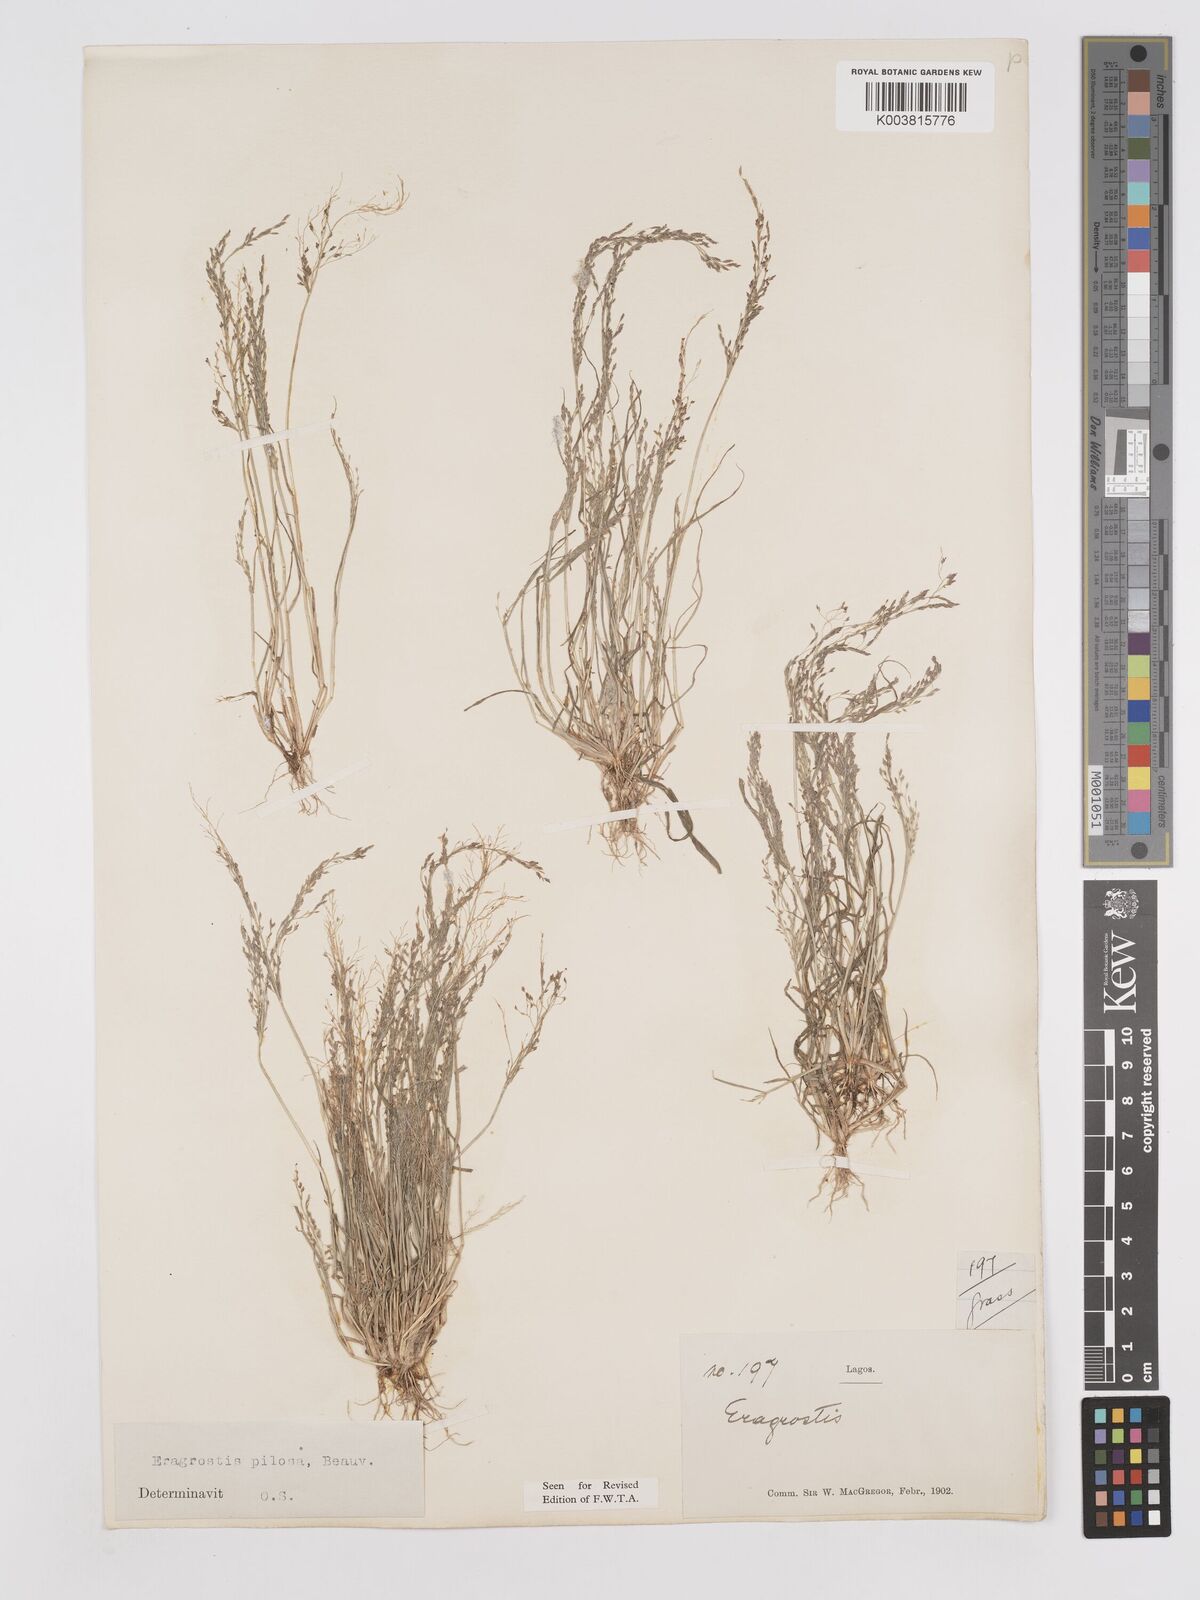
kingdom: Plantae
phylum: Tracheophyta
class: Liliopsida
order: Poales
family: Poaceae
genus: Eragrostis
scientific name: Eragrostis pilosa
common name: Indian lovegrass
